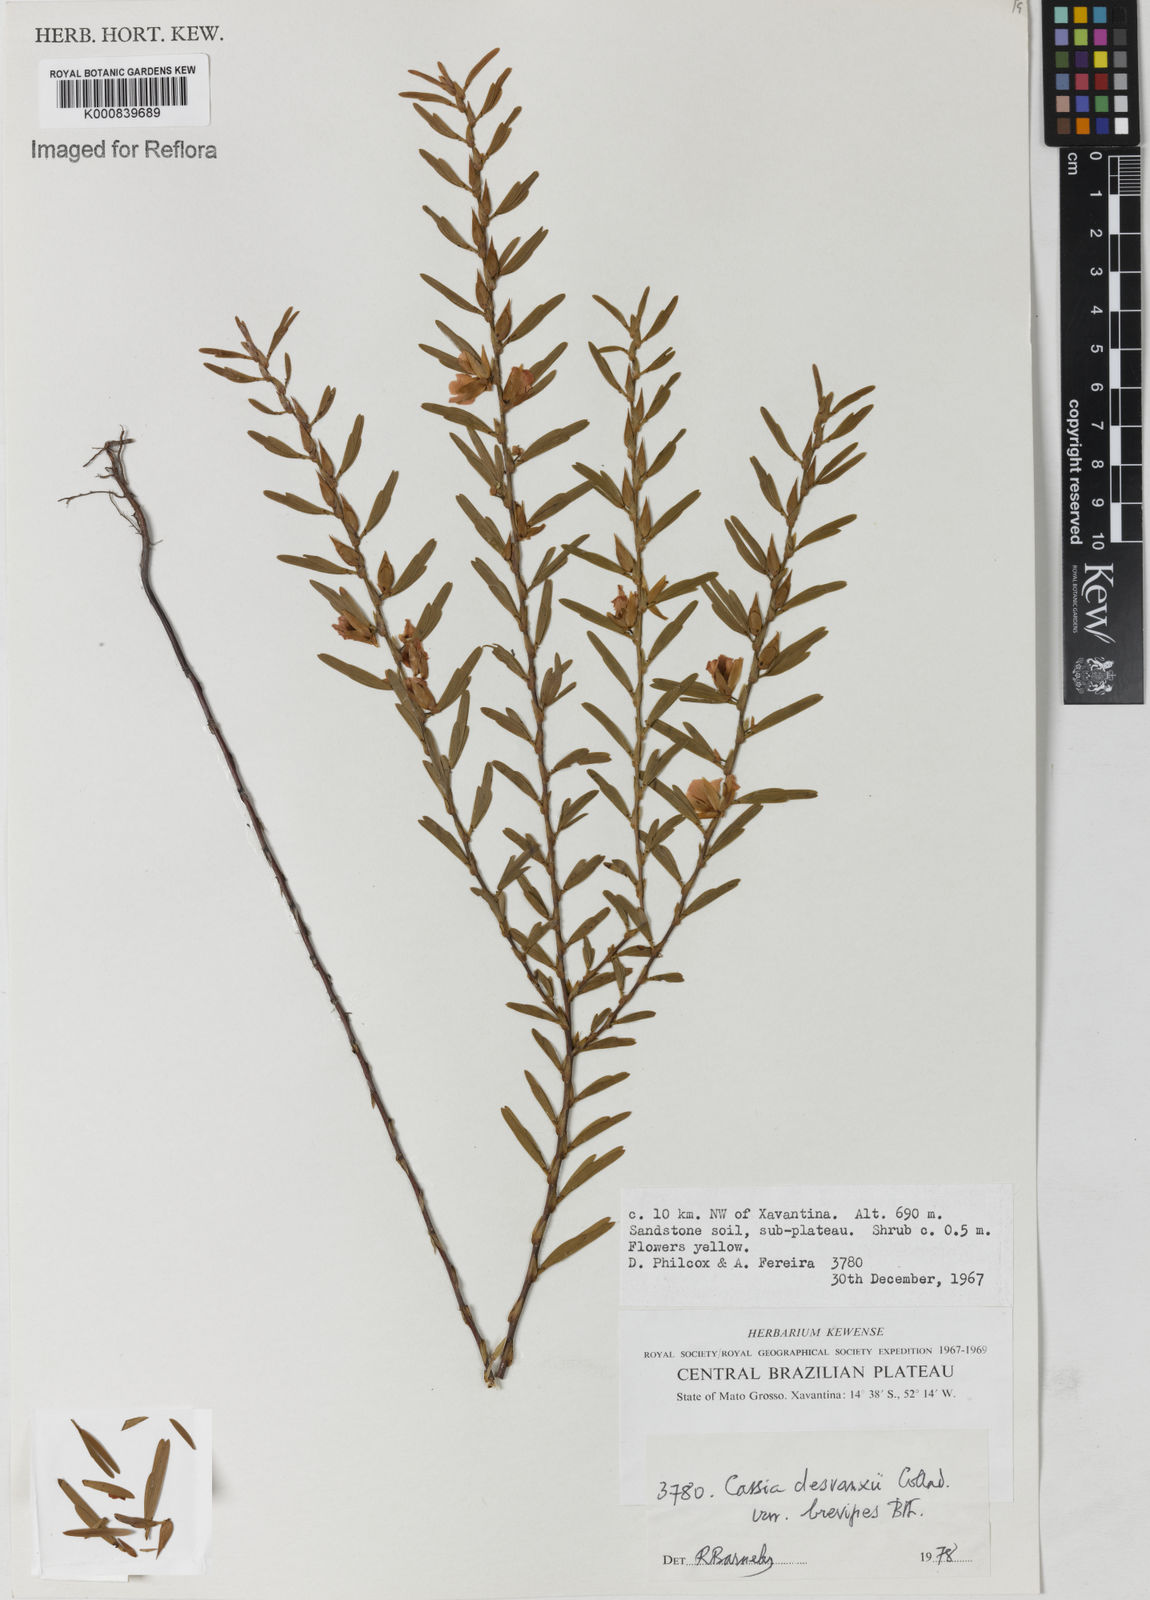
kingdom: Plantae
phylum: Tracheophyta
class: Magnoliopsida
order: Fabales
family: Fabaceae
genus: Chamaecrista
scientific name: Chamaecrista desvauxii
